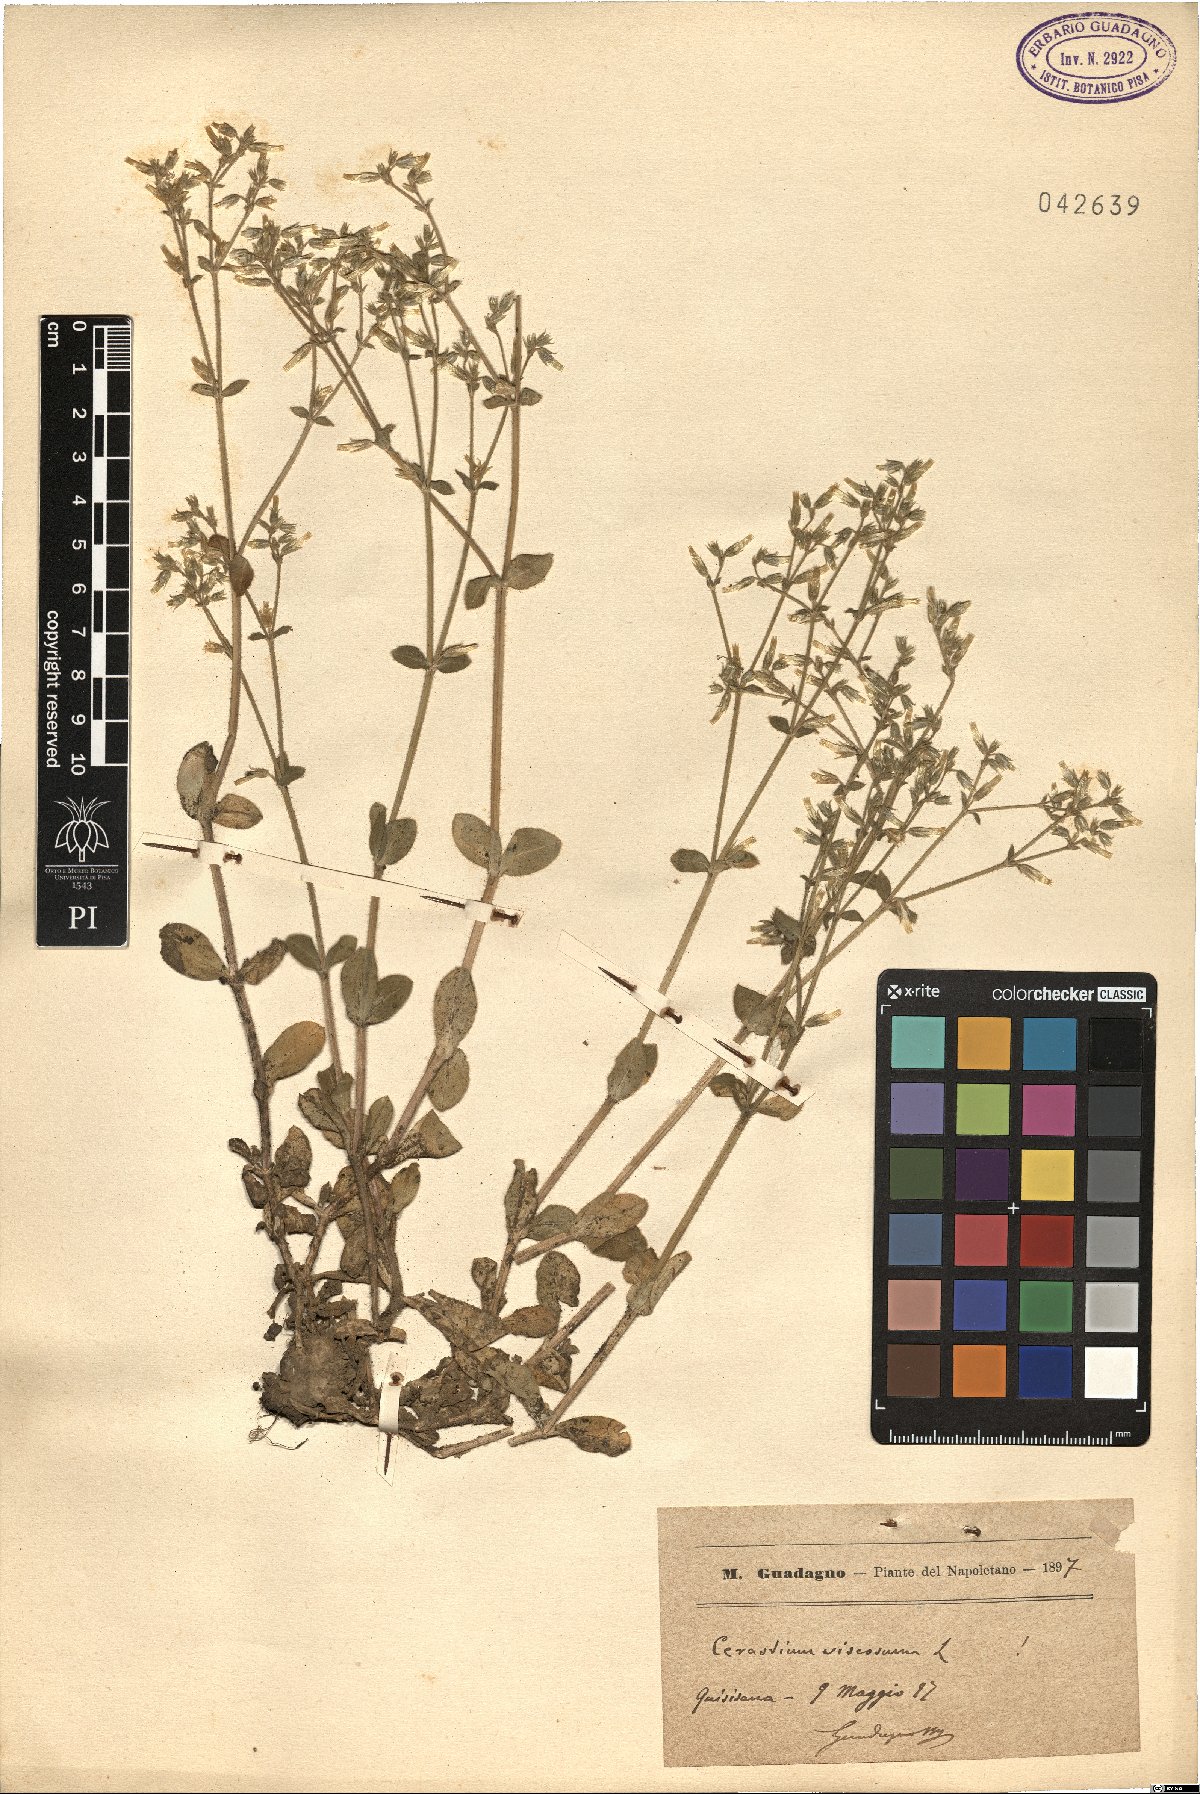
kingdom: Plantae
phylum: Tracheophyta
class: Magnoliopsida
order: Caryophyllales
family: Caryophyllaceae
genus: Cerastium
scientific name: Cerastium holosteoides
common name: Big chickweed
